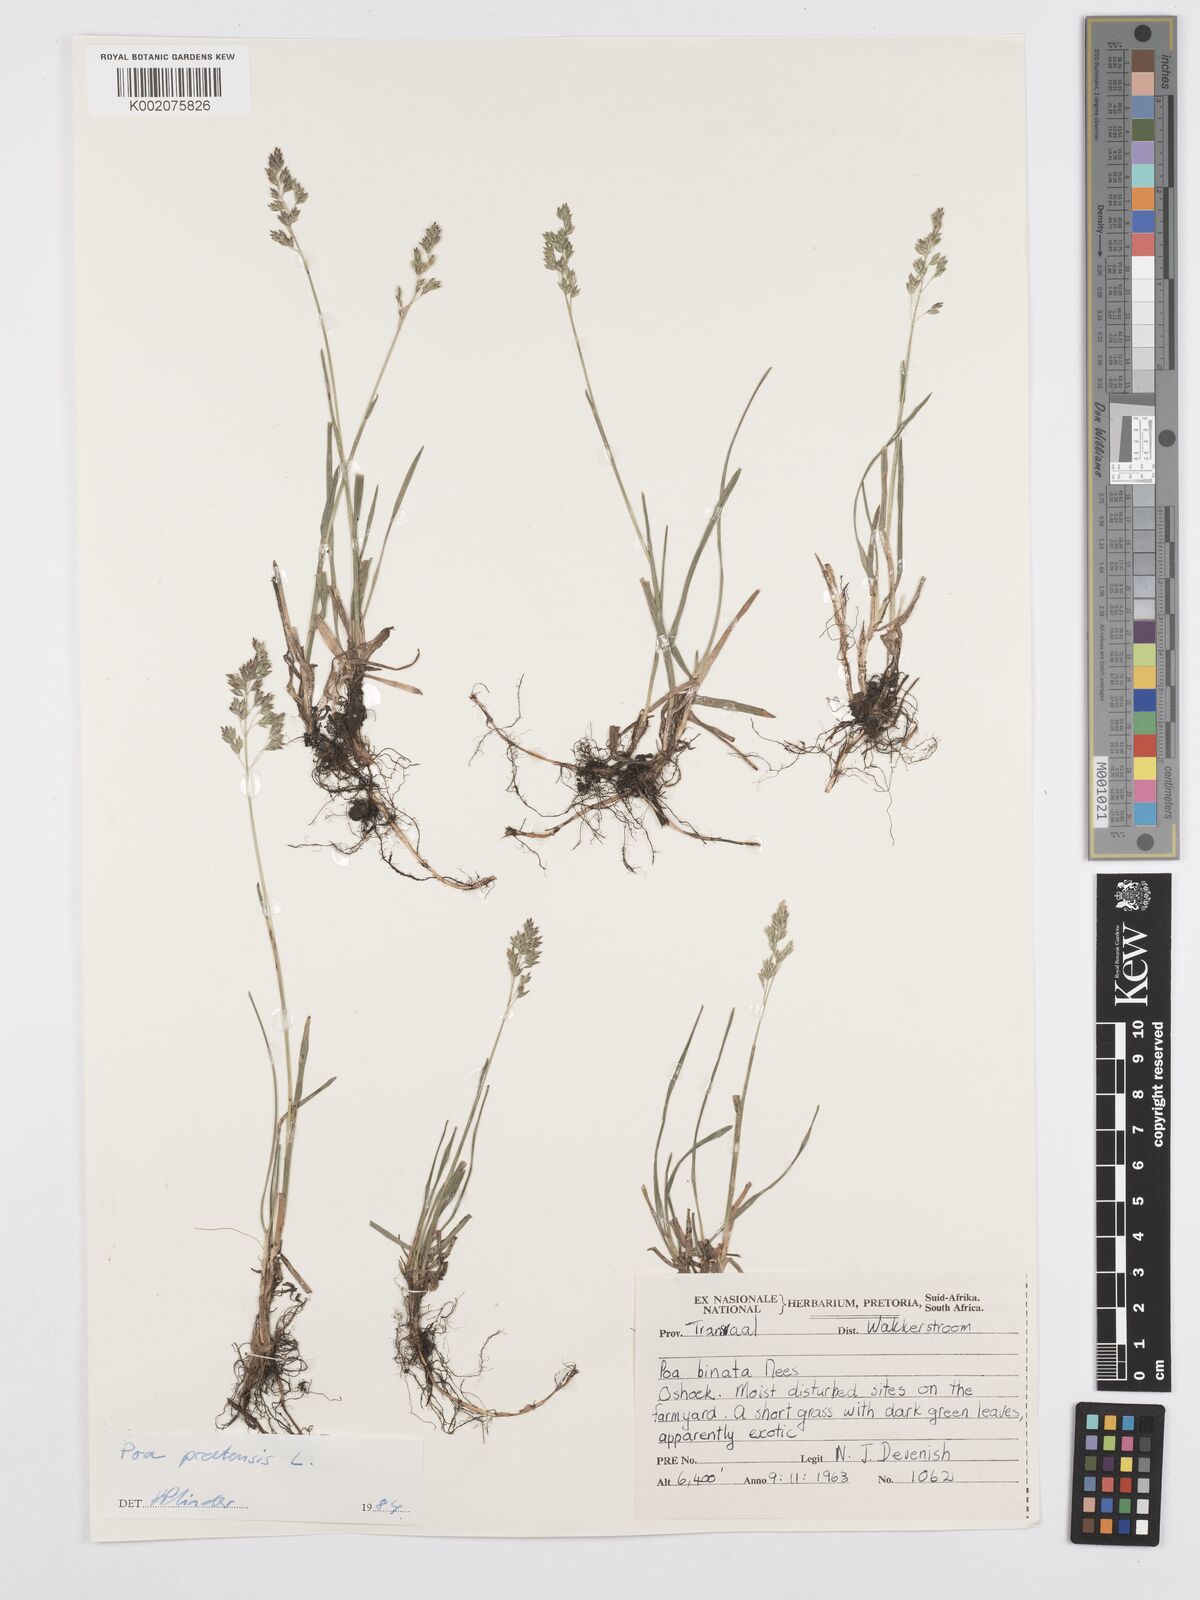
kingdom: Plantae
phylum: Tracheophyta
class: Liliopsida
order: Poales
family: Poaceae
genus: Poa
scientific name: Poa pratensis
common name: Kentucky bluegrass
